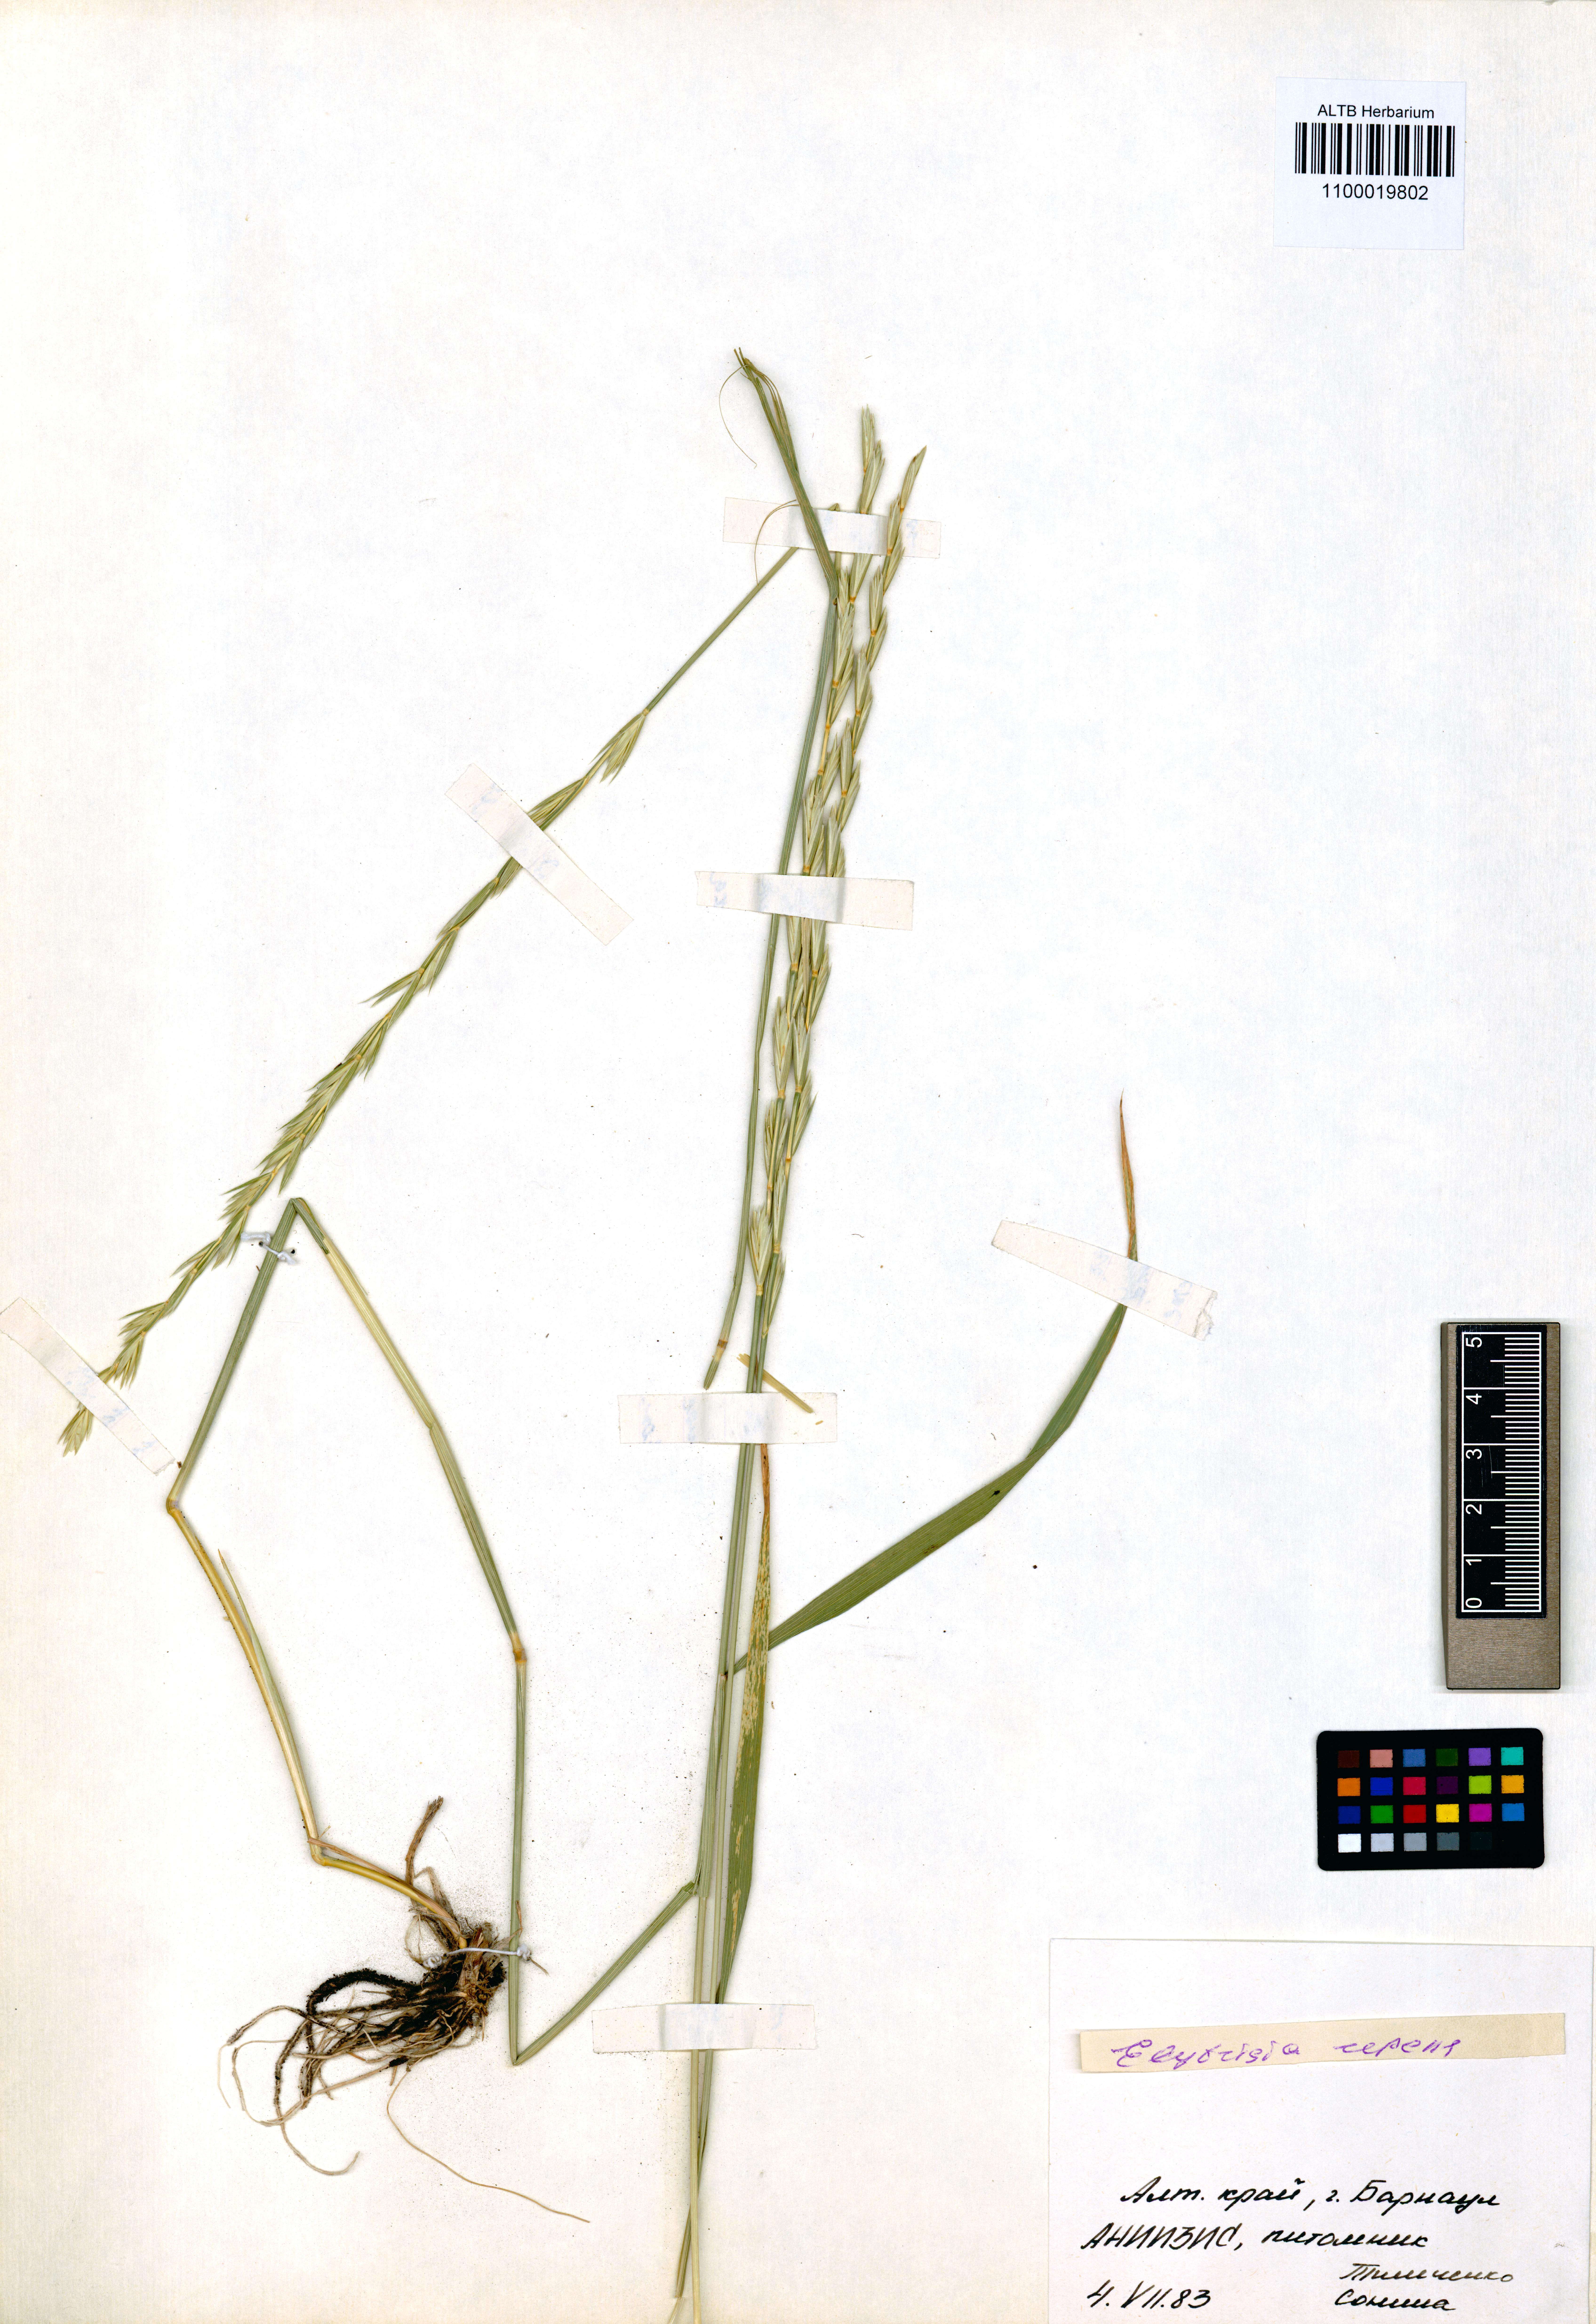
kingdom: Plantae
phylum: Tracheophyta
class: Liliopsida
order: Poales
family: Poaceae
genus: Elymus
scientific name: Elymus repens
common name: Quackgrass
